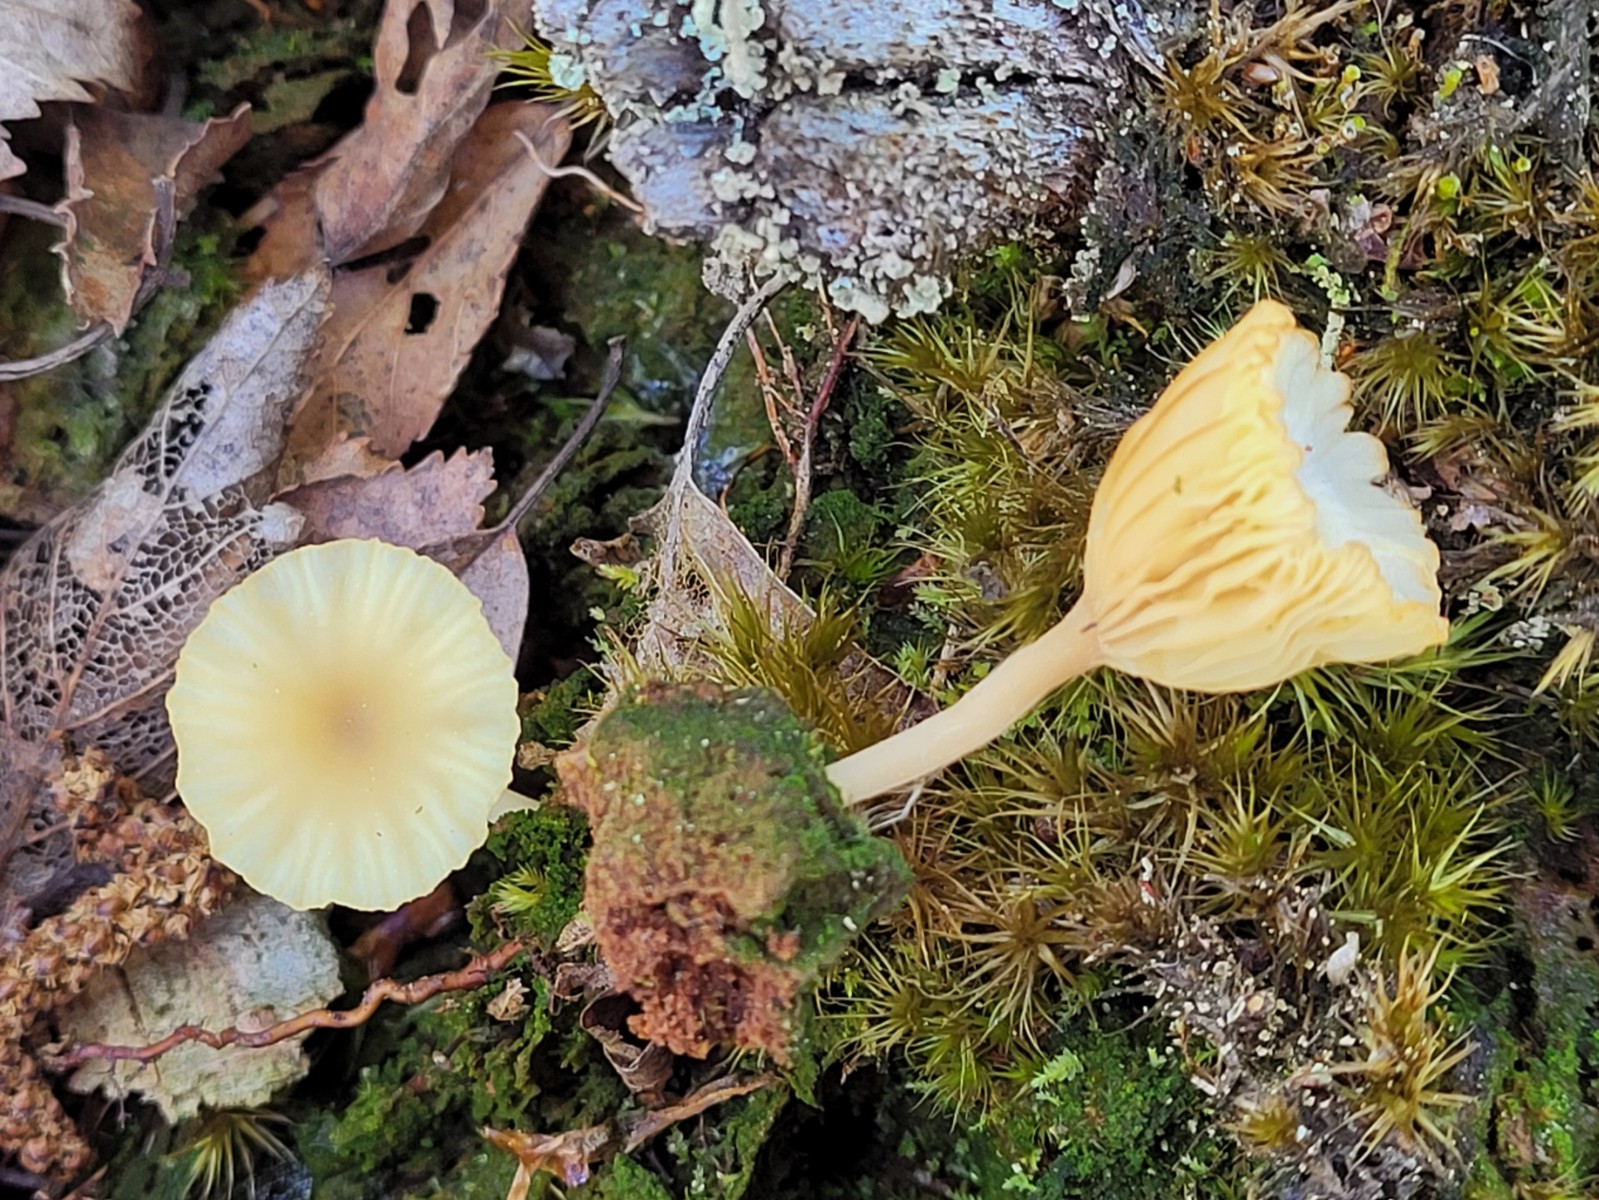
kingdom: Fungi
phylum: Basidiomycota
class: Agaricomycetes
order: Agaricales
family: Hygrophoraceae
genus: Lichenomphalia
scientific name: Lichenomphalia umbellifera
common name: tørve-lavhat
